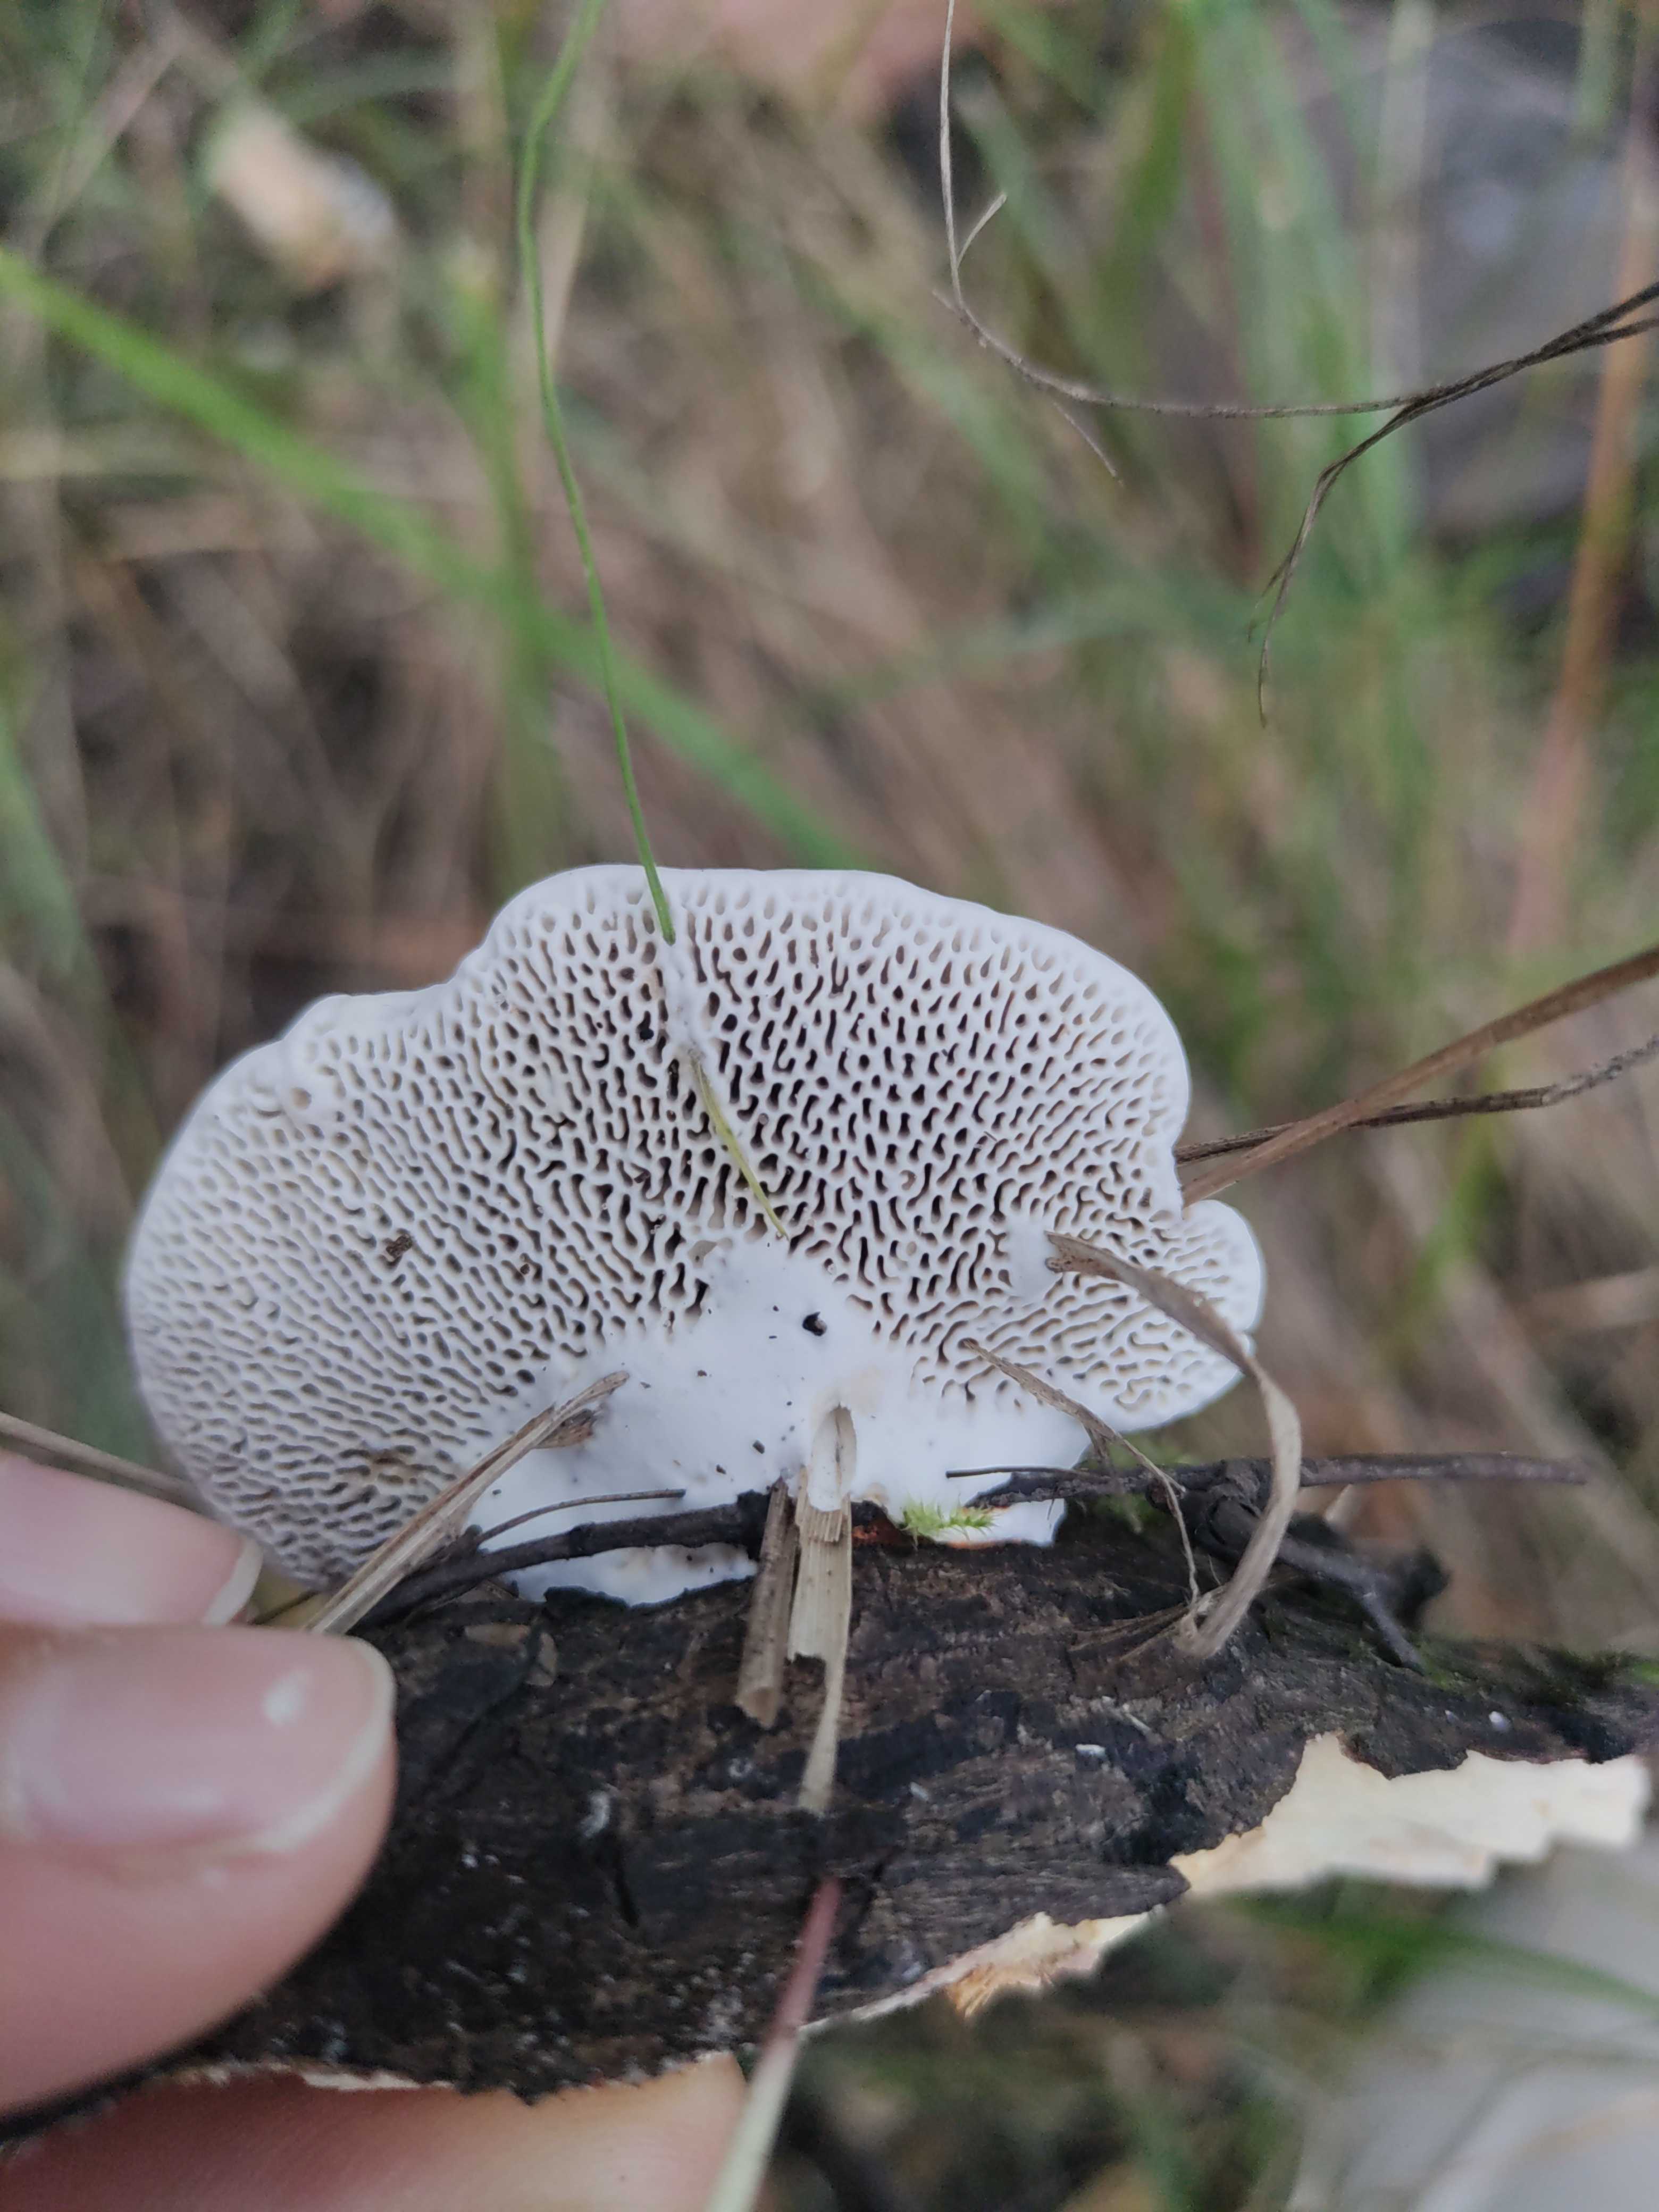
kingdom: Fungi
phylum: Basidiomycota
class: Agaricomycetes
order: Polyporales
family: Polyporaceae
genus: Daedaleopsis
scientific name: Daedaleopsis confragosa
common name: rødmende læderporesvamp
